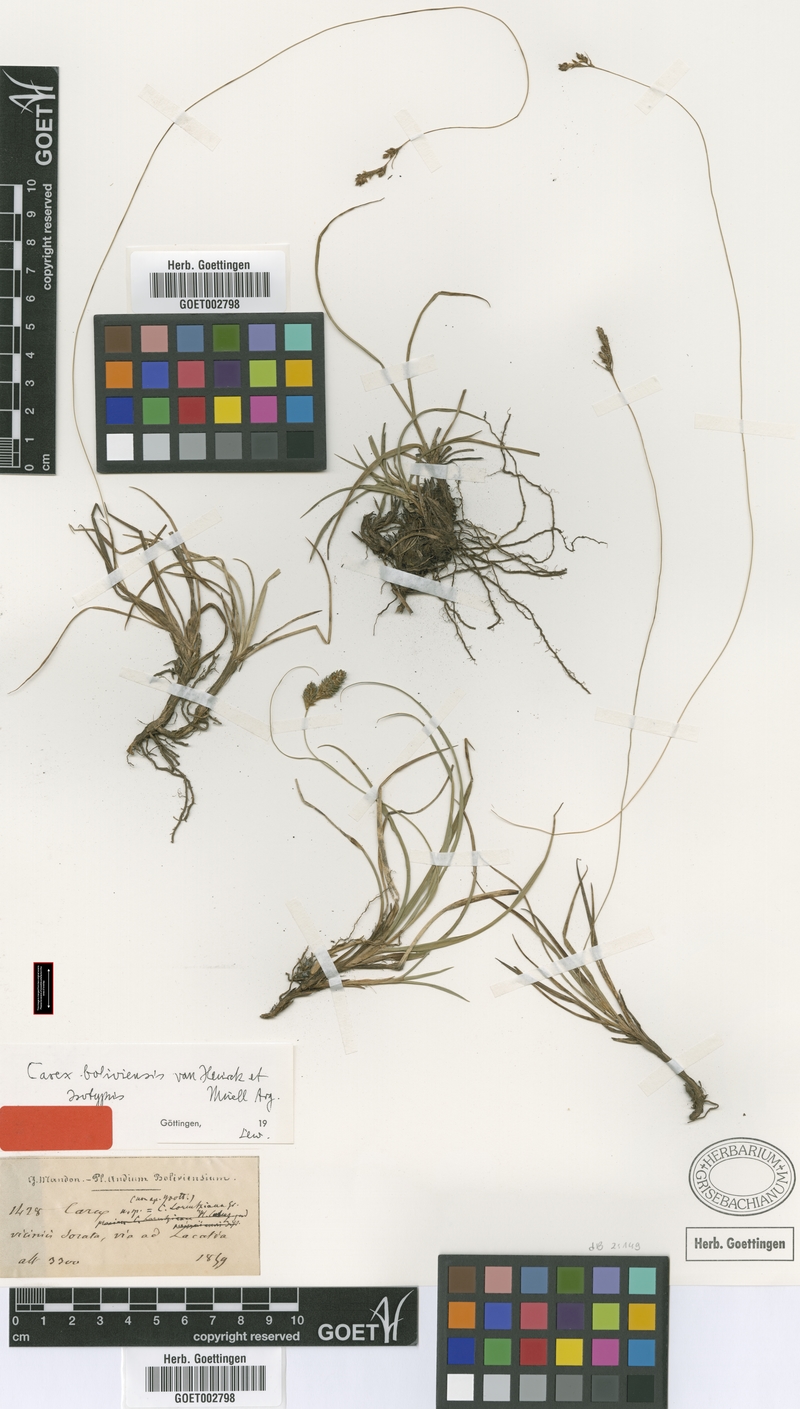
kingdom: Plantae
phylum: Tracheophyta
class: Liliopsida
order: Poales
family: Cyperaceae
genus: Carex
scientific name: Carex boliviensis
